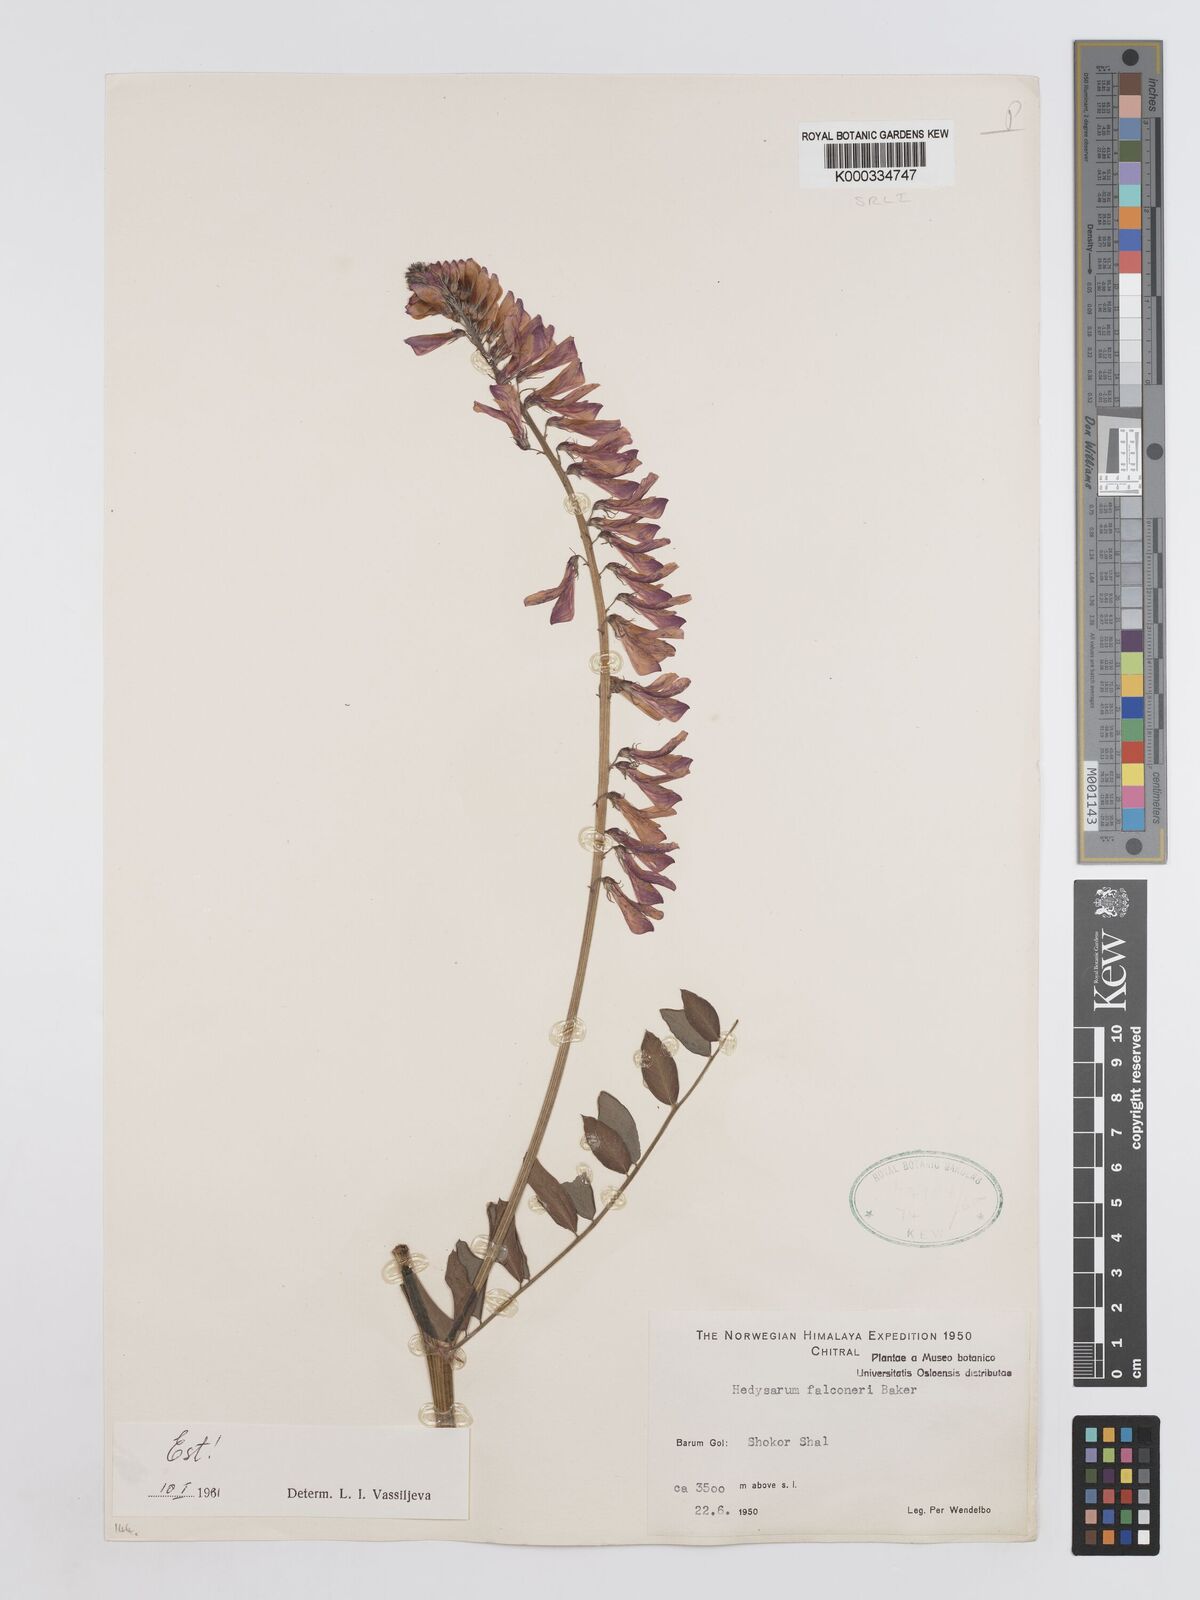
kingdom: Plantae
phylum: Tracheophyta
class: Magnoliopsida
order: Fabales
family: Fabaceae
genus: Hedysarum
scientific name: Hedysarum falconeri
